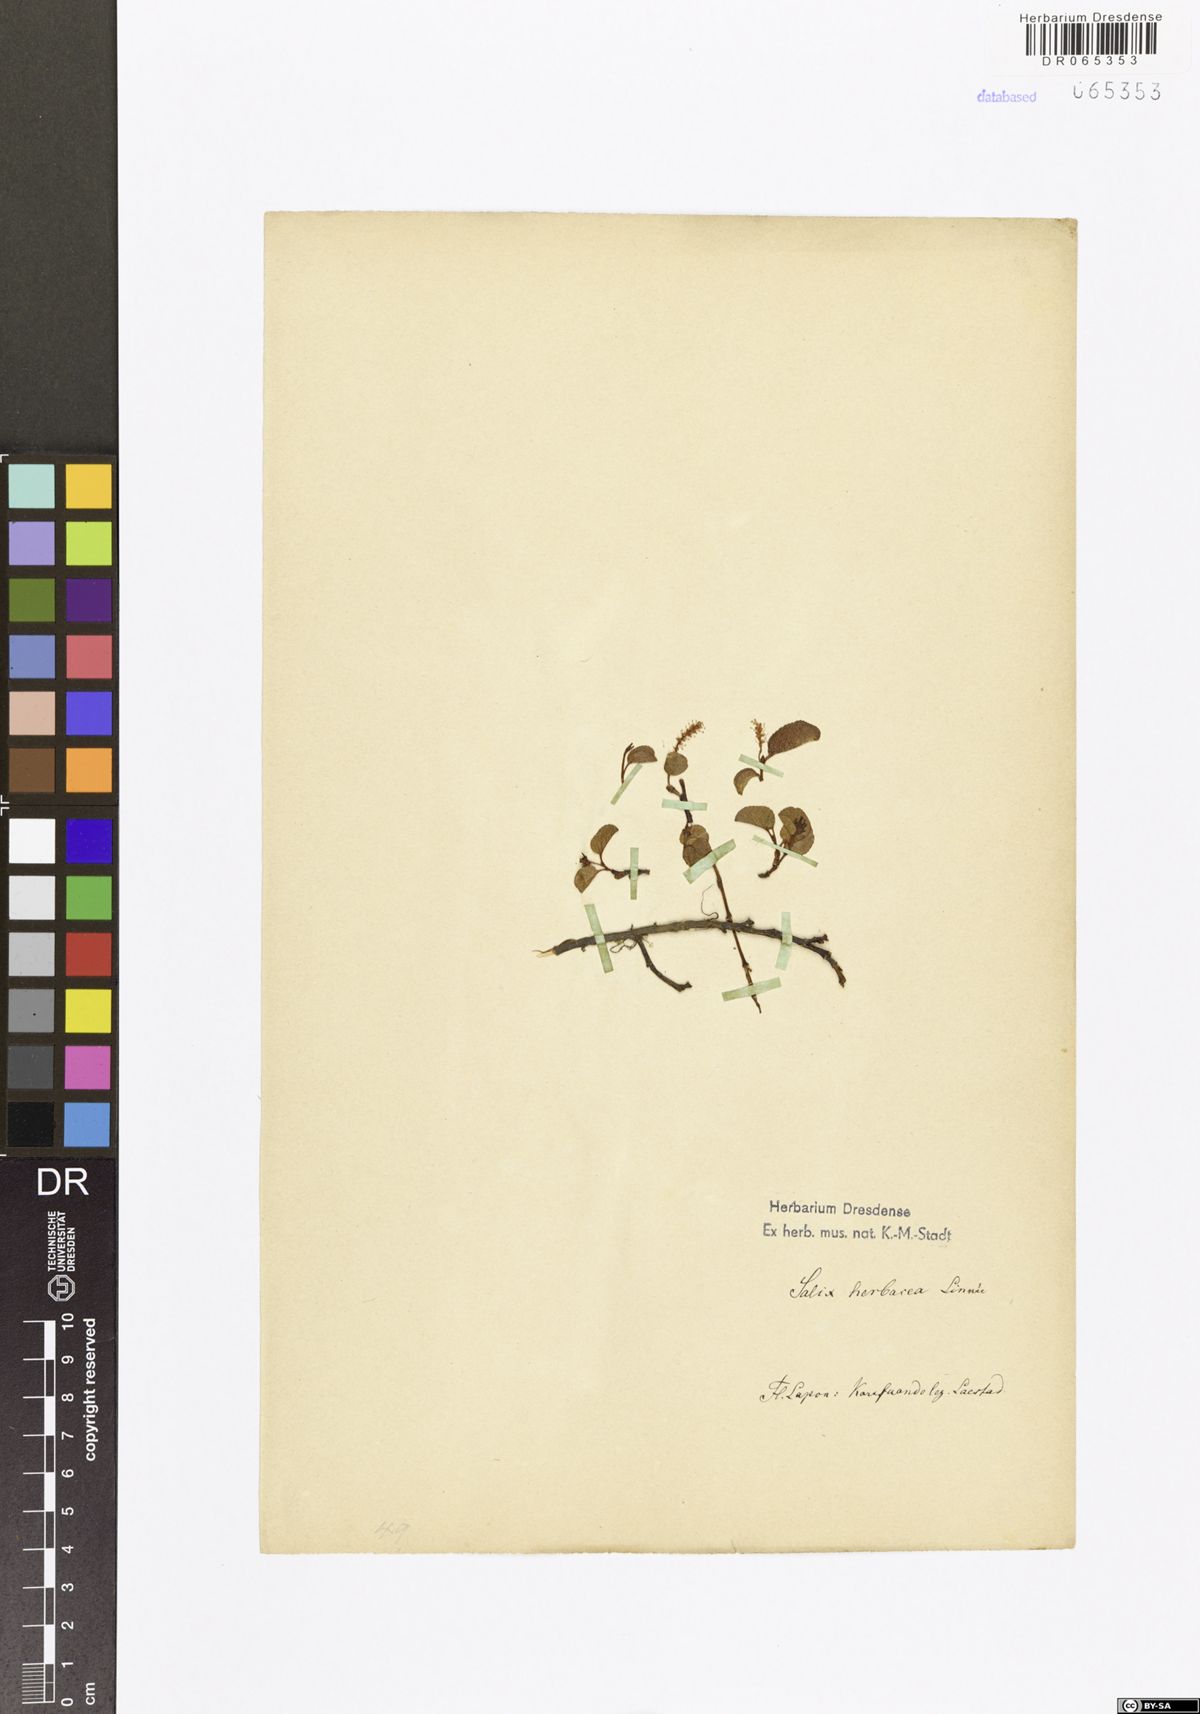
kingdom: Plantae
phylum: Tracheophyta
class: Magnoliopsida
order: Malpighiales
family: Salicaceae
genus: Salix
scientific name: Salix herbacea
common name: Dwarf willow
